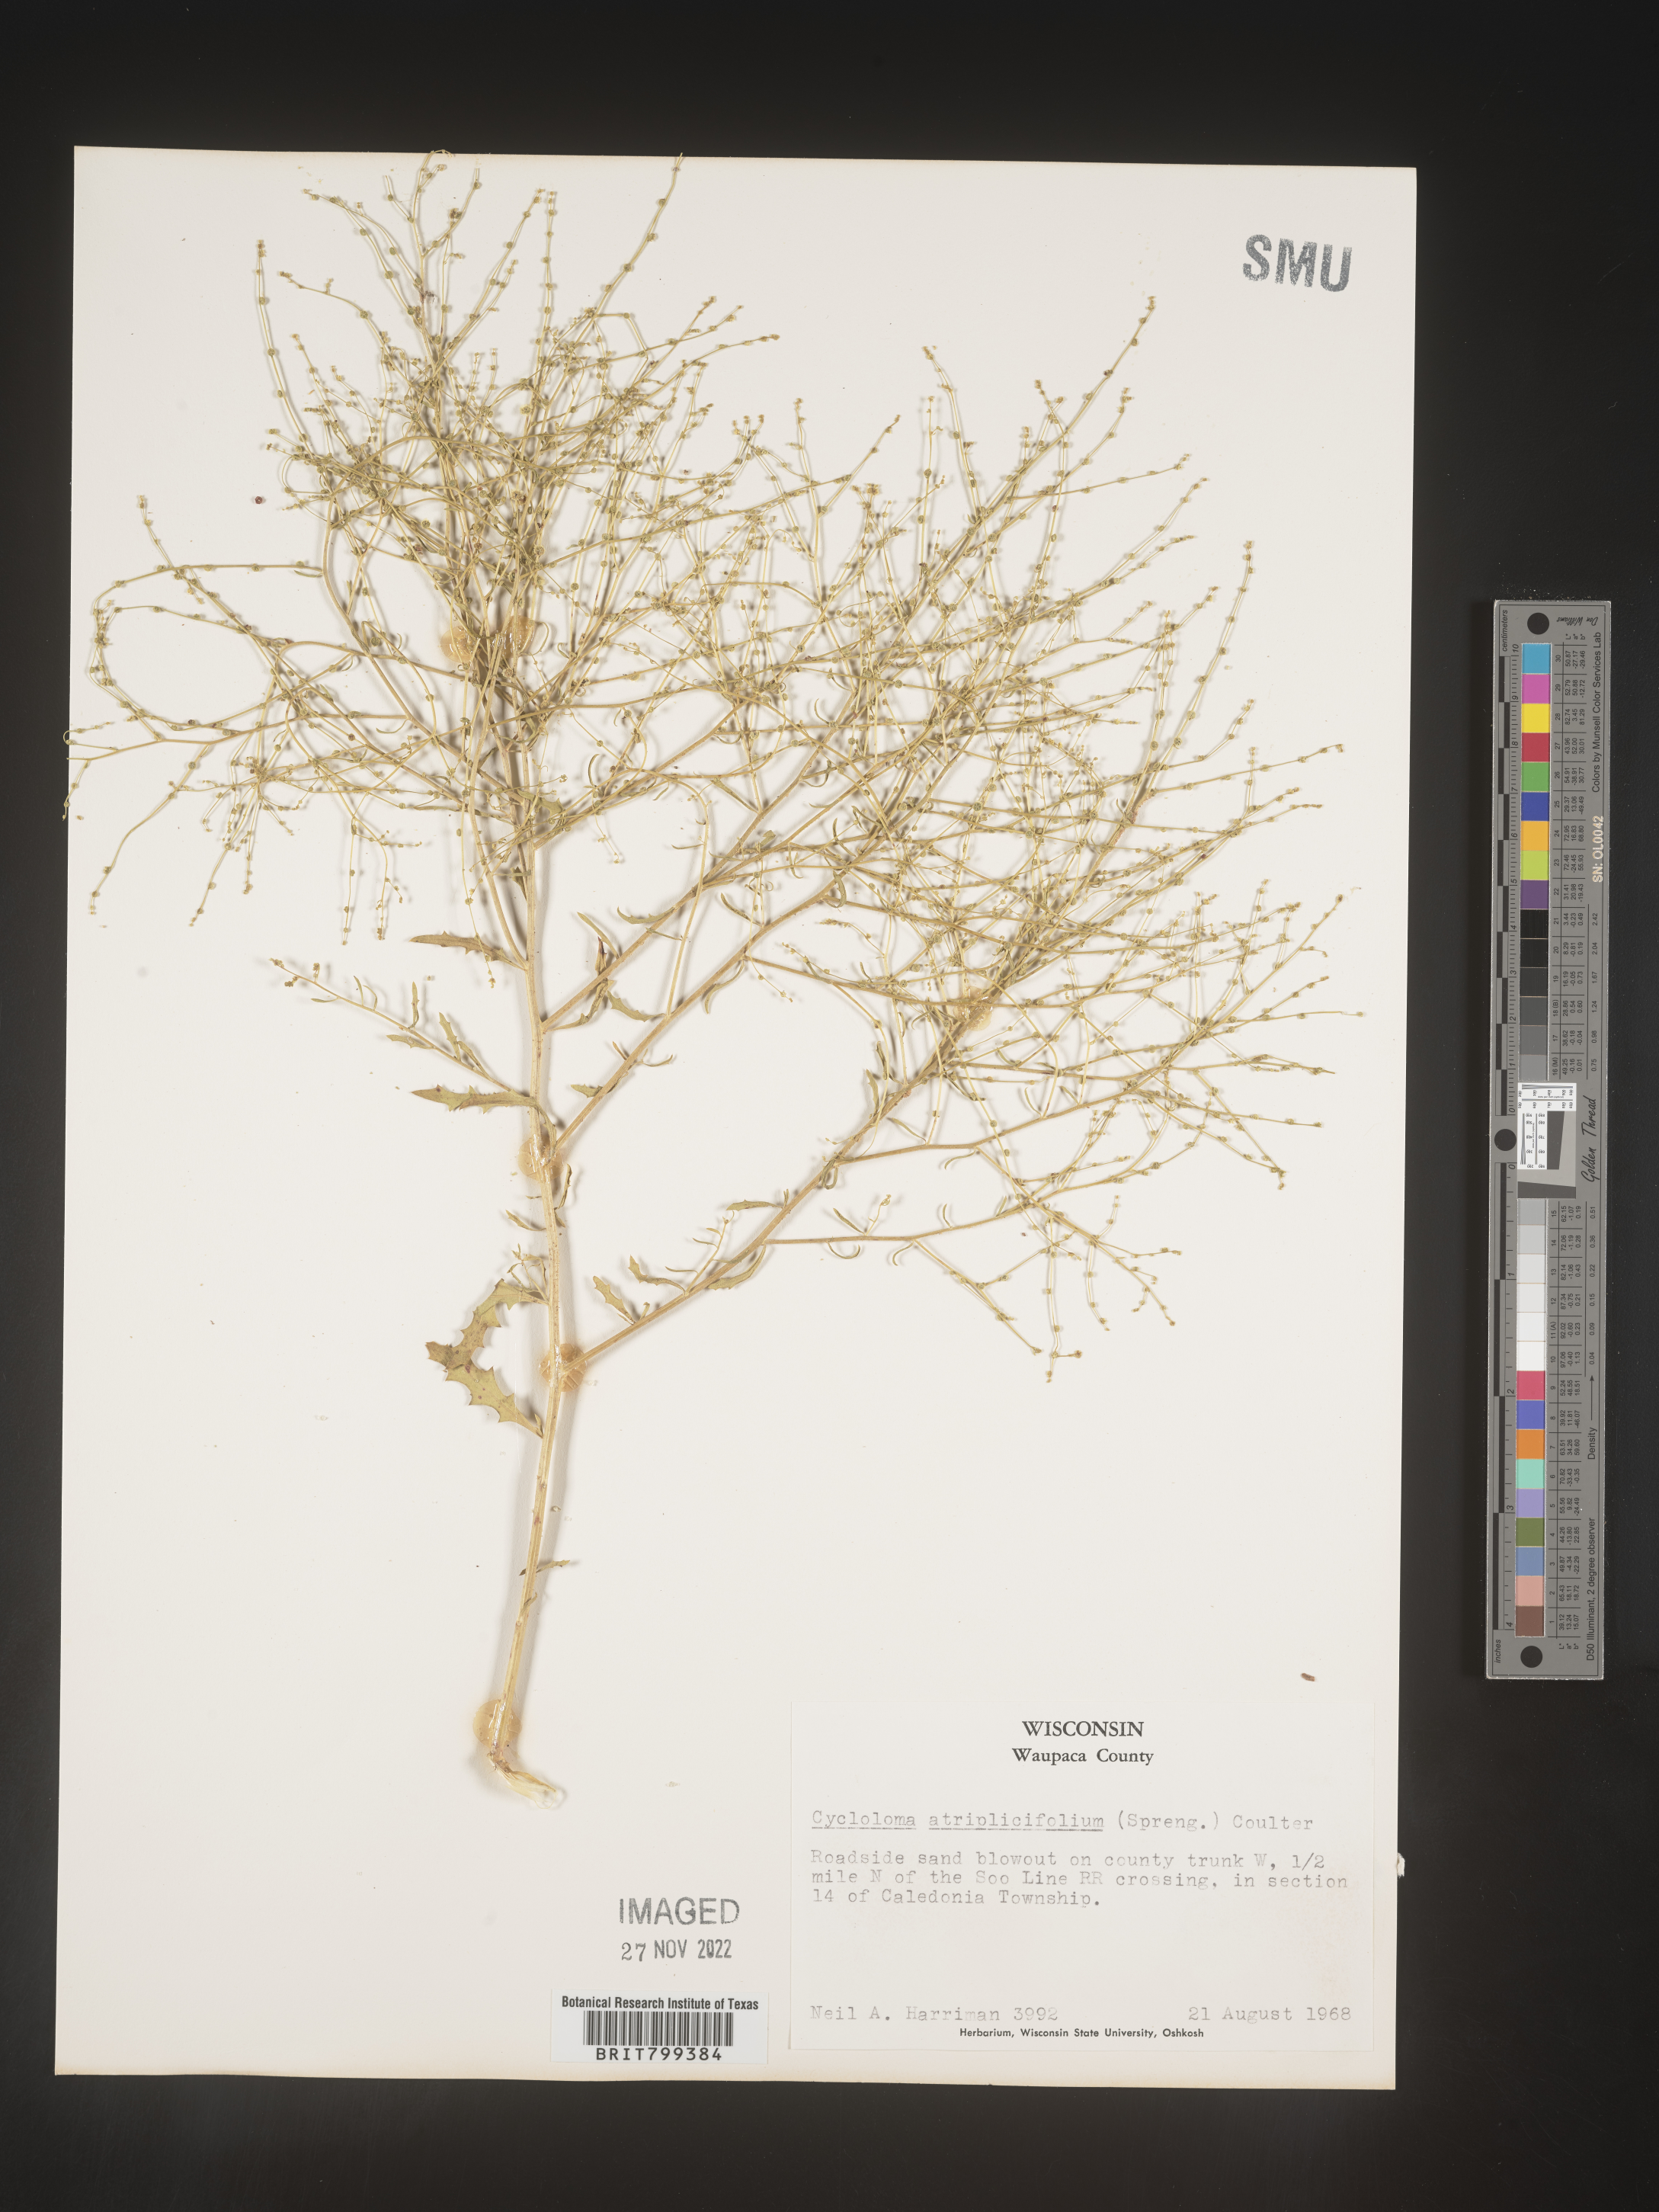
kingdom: Plantae
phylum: Tracheophyta
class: Magnoliopsida
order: Caryophyllales
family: Amaranthaceae
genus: Dysphania
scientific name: Dysphania atriplicifolia
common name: Plains tumbleweed
